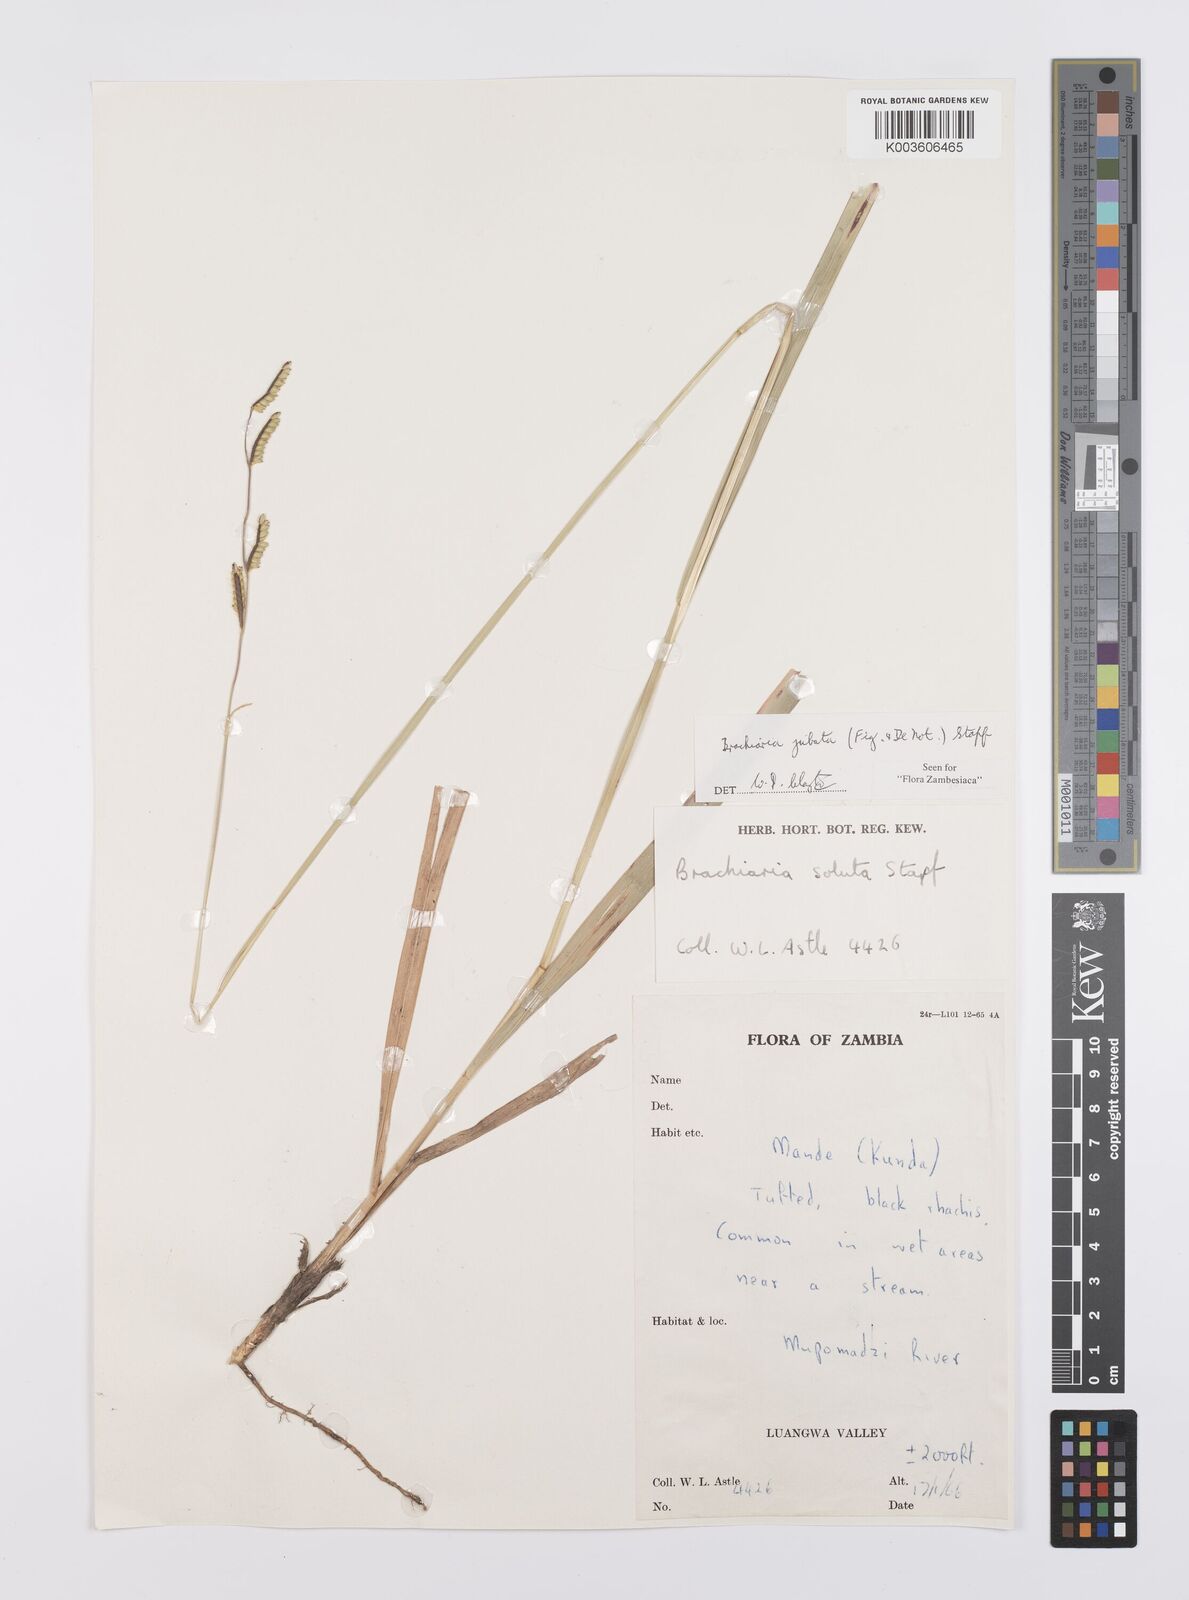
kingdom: Plantae
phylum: Tracheophyta
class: Liliopsida
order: Poales
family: Poaceae
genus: Urochloa
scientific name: Urochloa jubata
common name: Buffalograss
